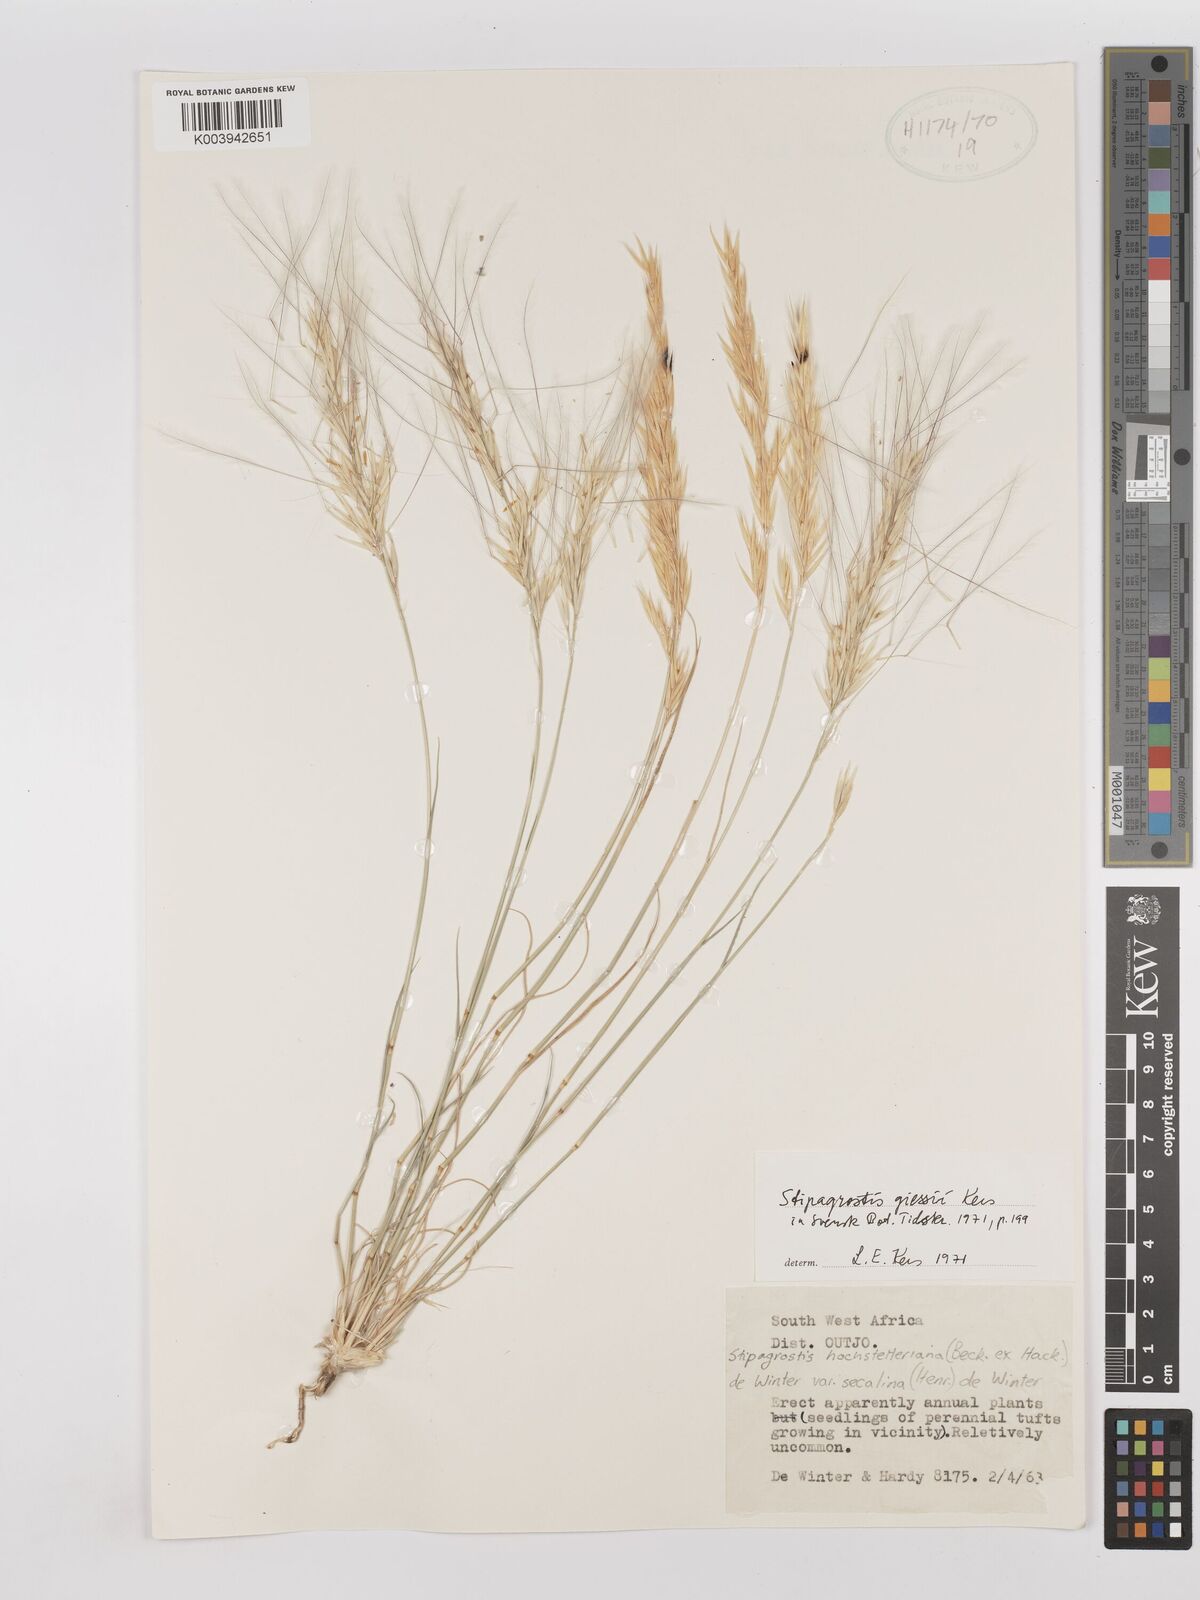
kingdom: Plantae
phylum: Tracheophyta
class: Liliopsida
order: Poales
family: Poaceae
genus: Stipagrostis
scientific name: Stipagrostis giessii
